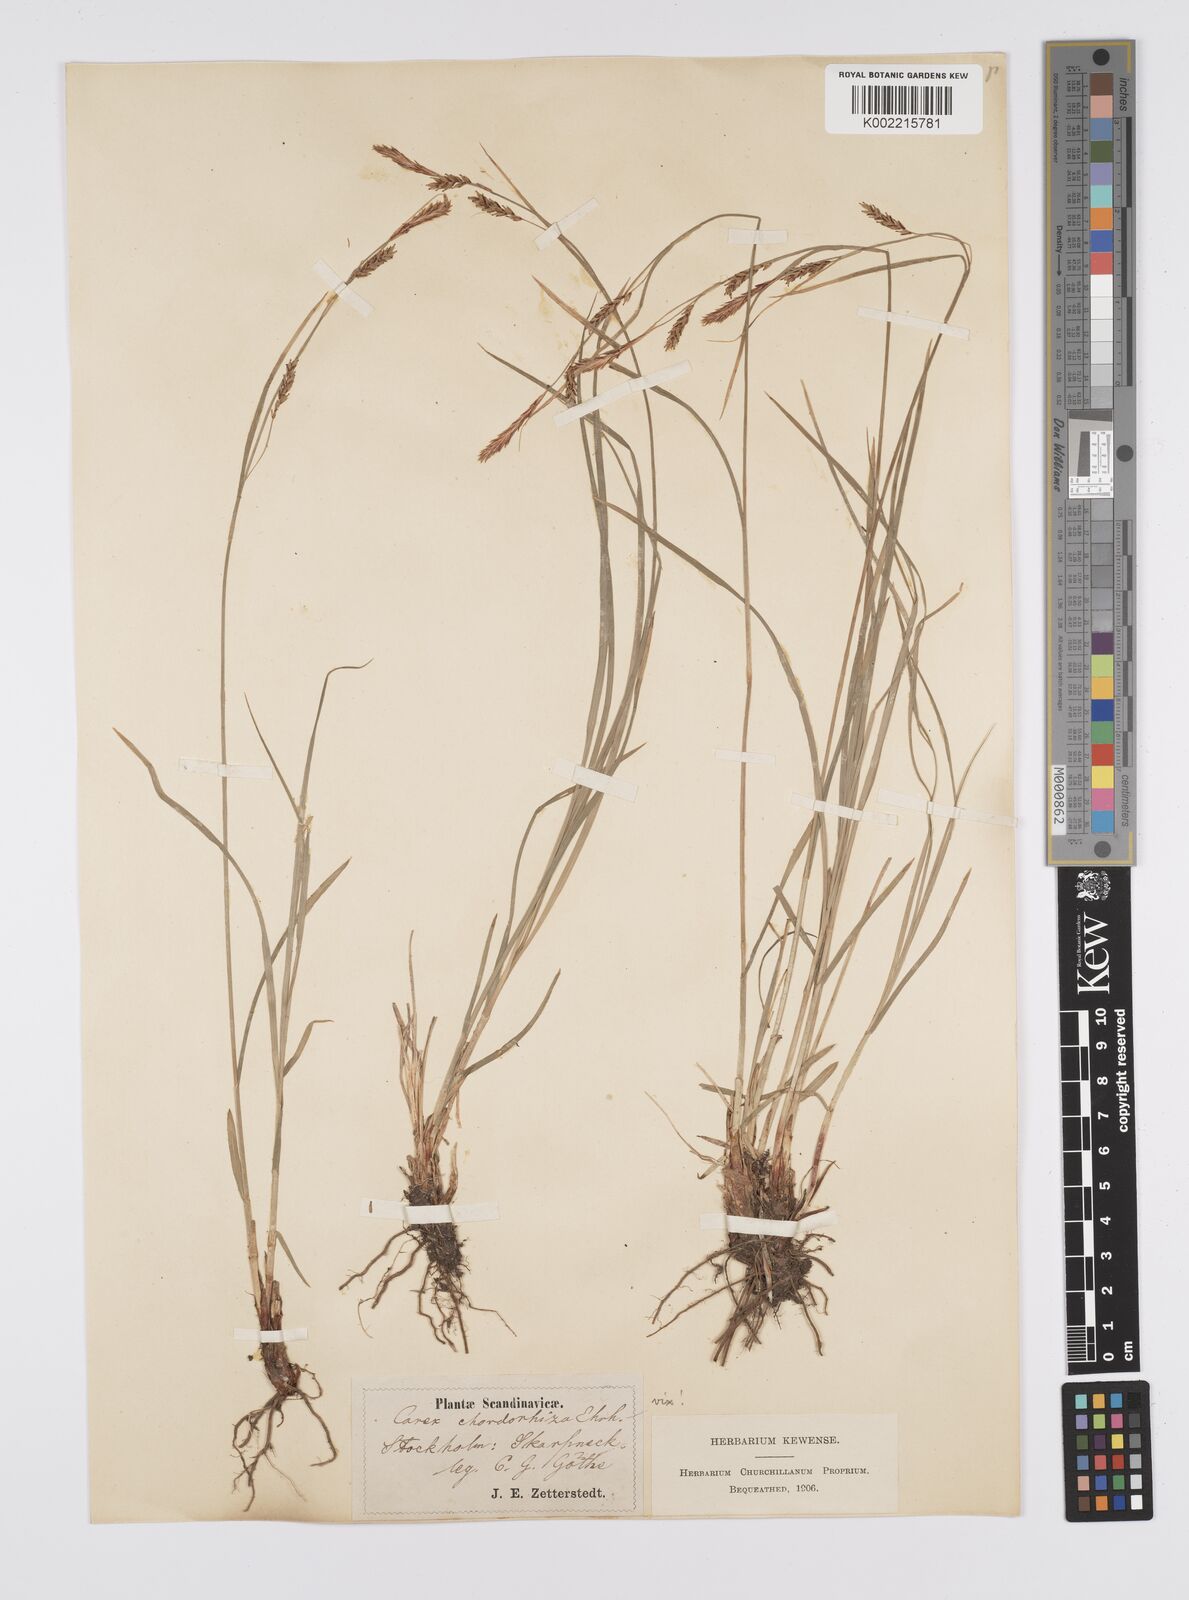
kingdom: Plantae
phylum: Tracheophyta
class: Liliopsida
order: Poales
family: Cyperaceae
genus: Carex
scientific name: Carex
